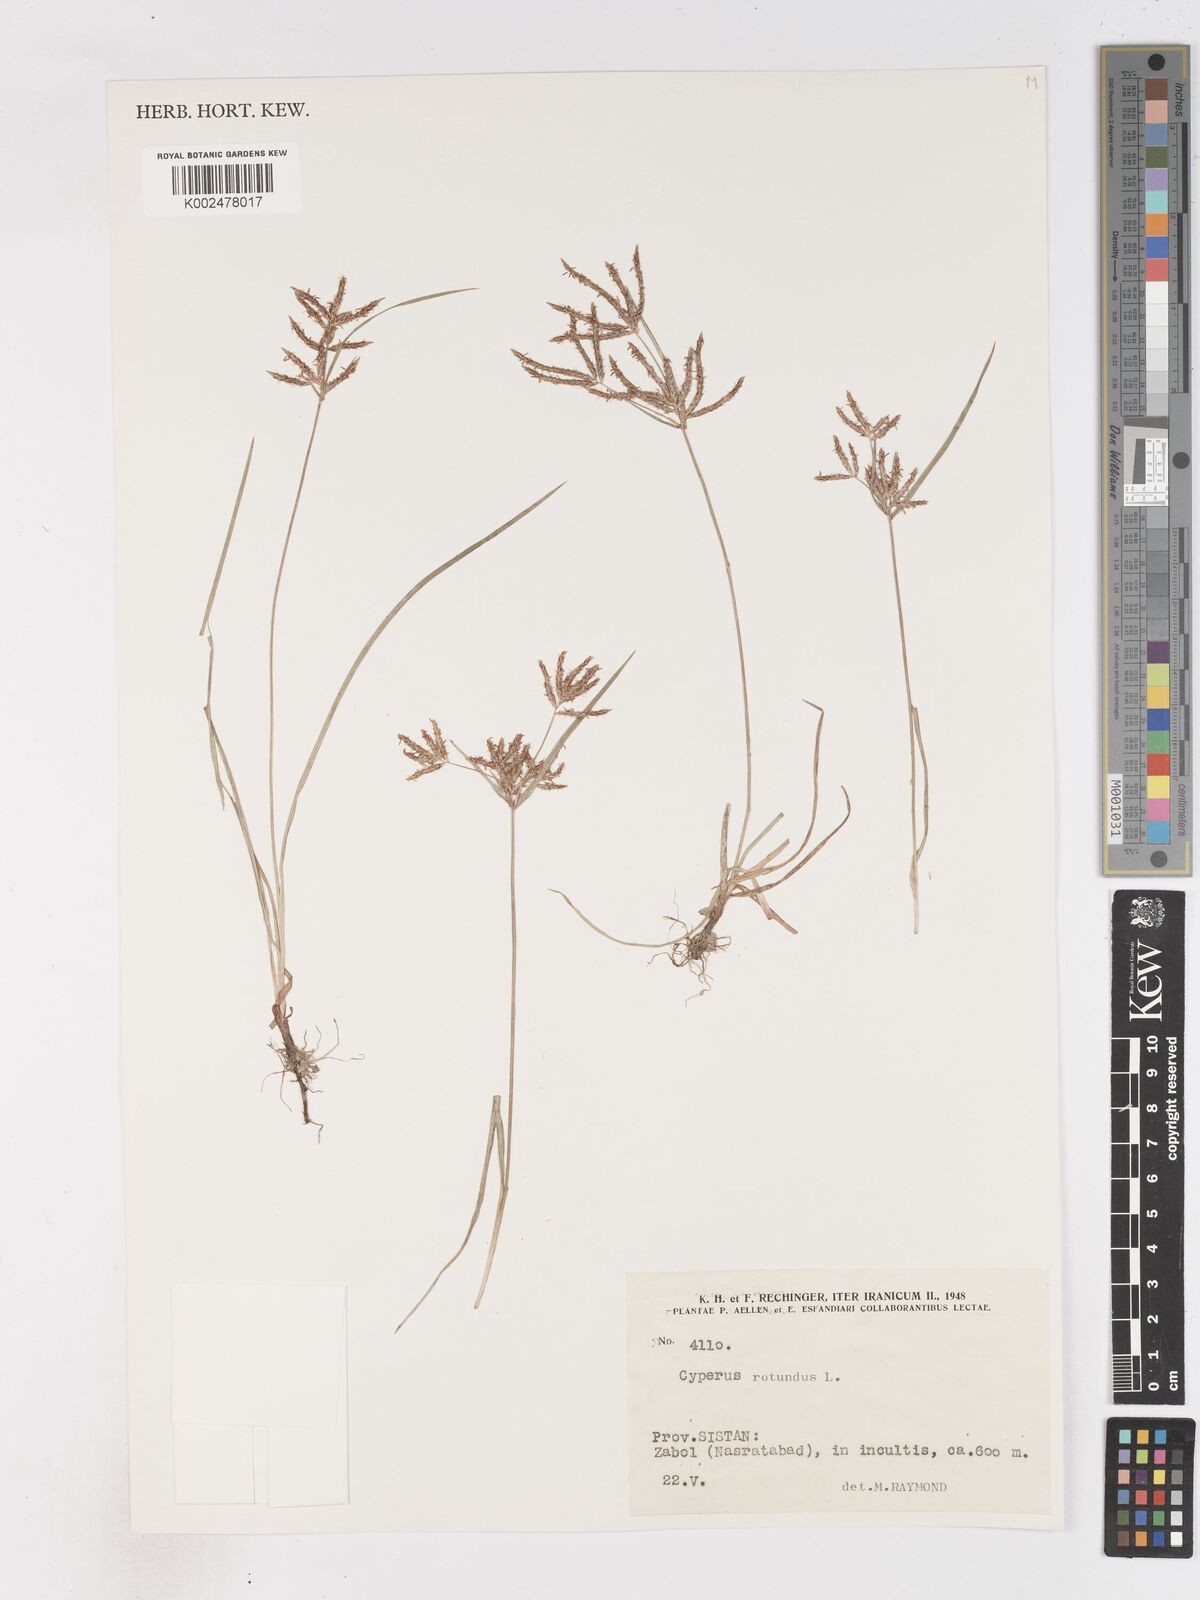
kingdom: Plantae
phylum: Tracheophyta
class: Liliopsida
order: Poales
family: Cyperaceae
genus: Cyperus
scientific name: Cyperus rotundus
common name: Nutgrass
